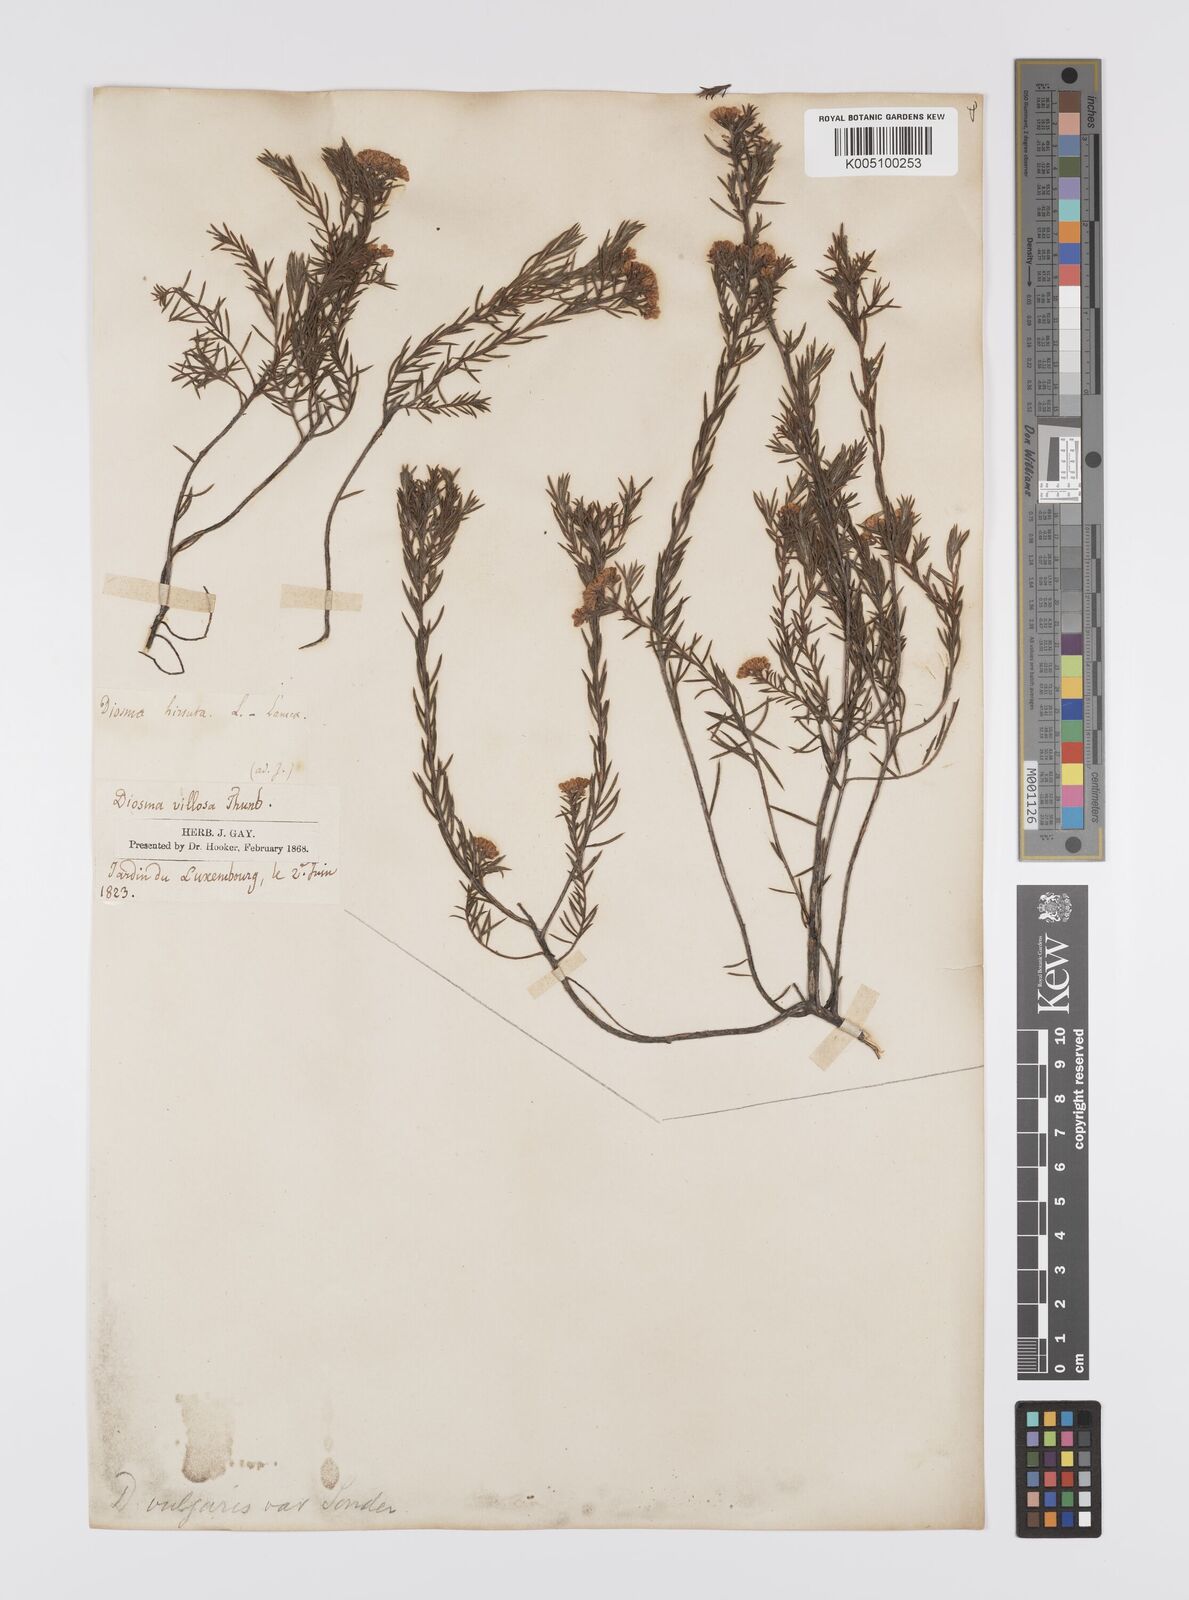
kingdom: Plantae
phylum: Tracheophyta
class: Magnoliopsida
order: Sapindales
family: Rutaceae
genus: Diosma
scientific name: Diosma hirsuta
